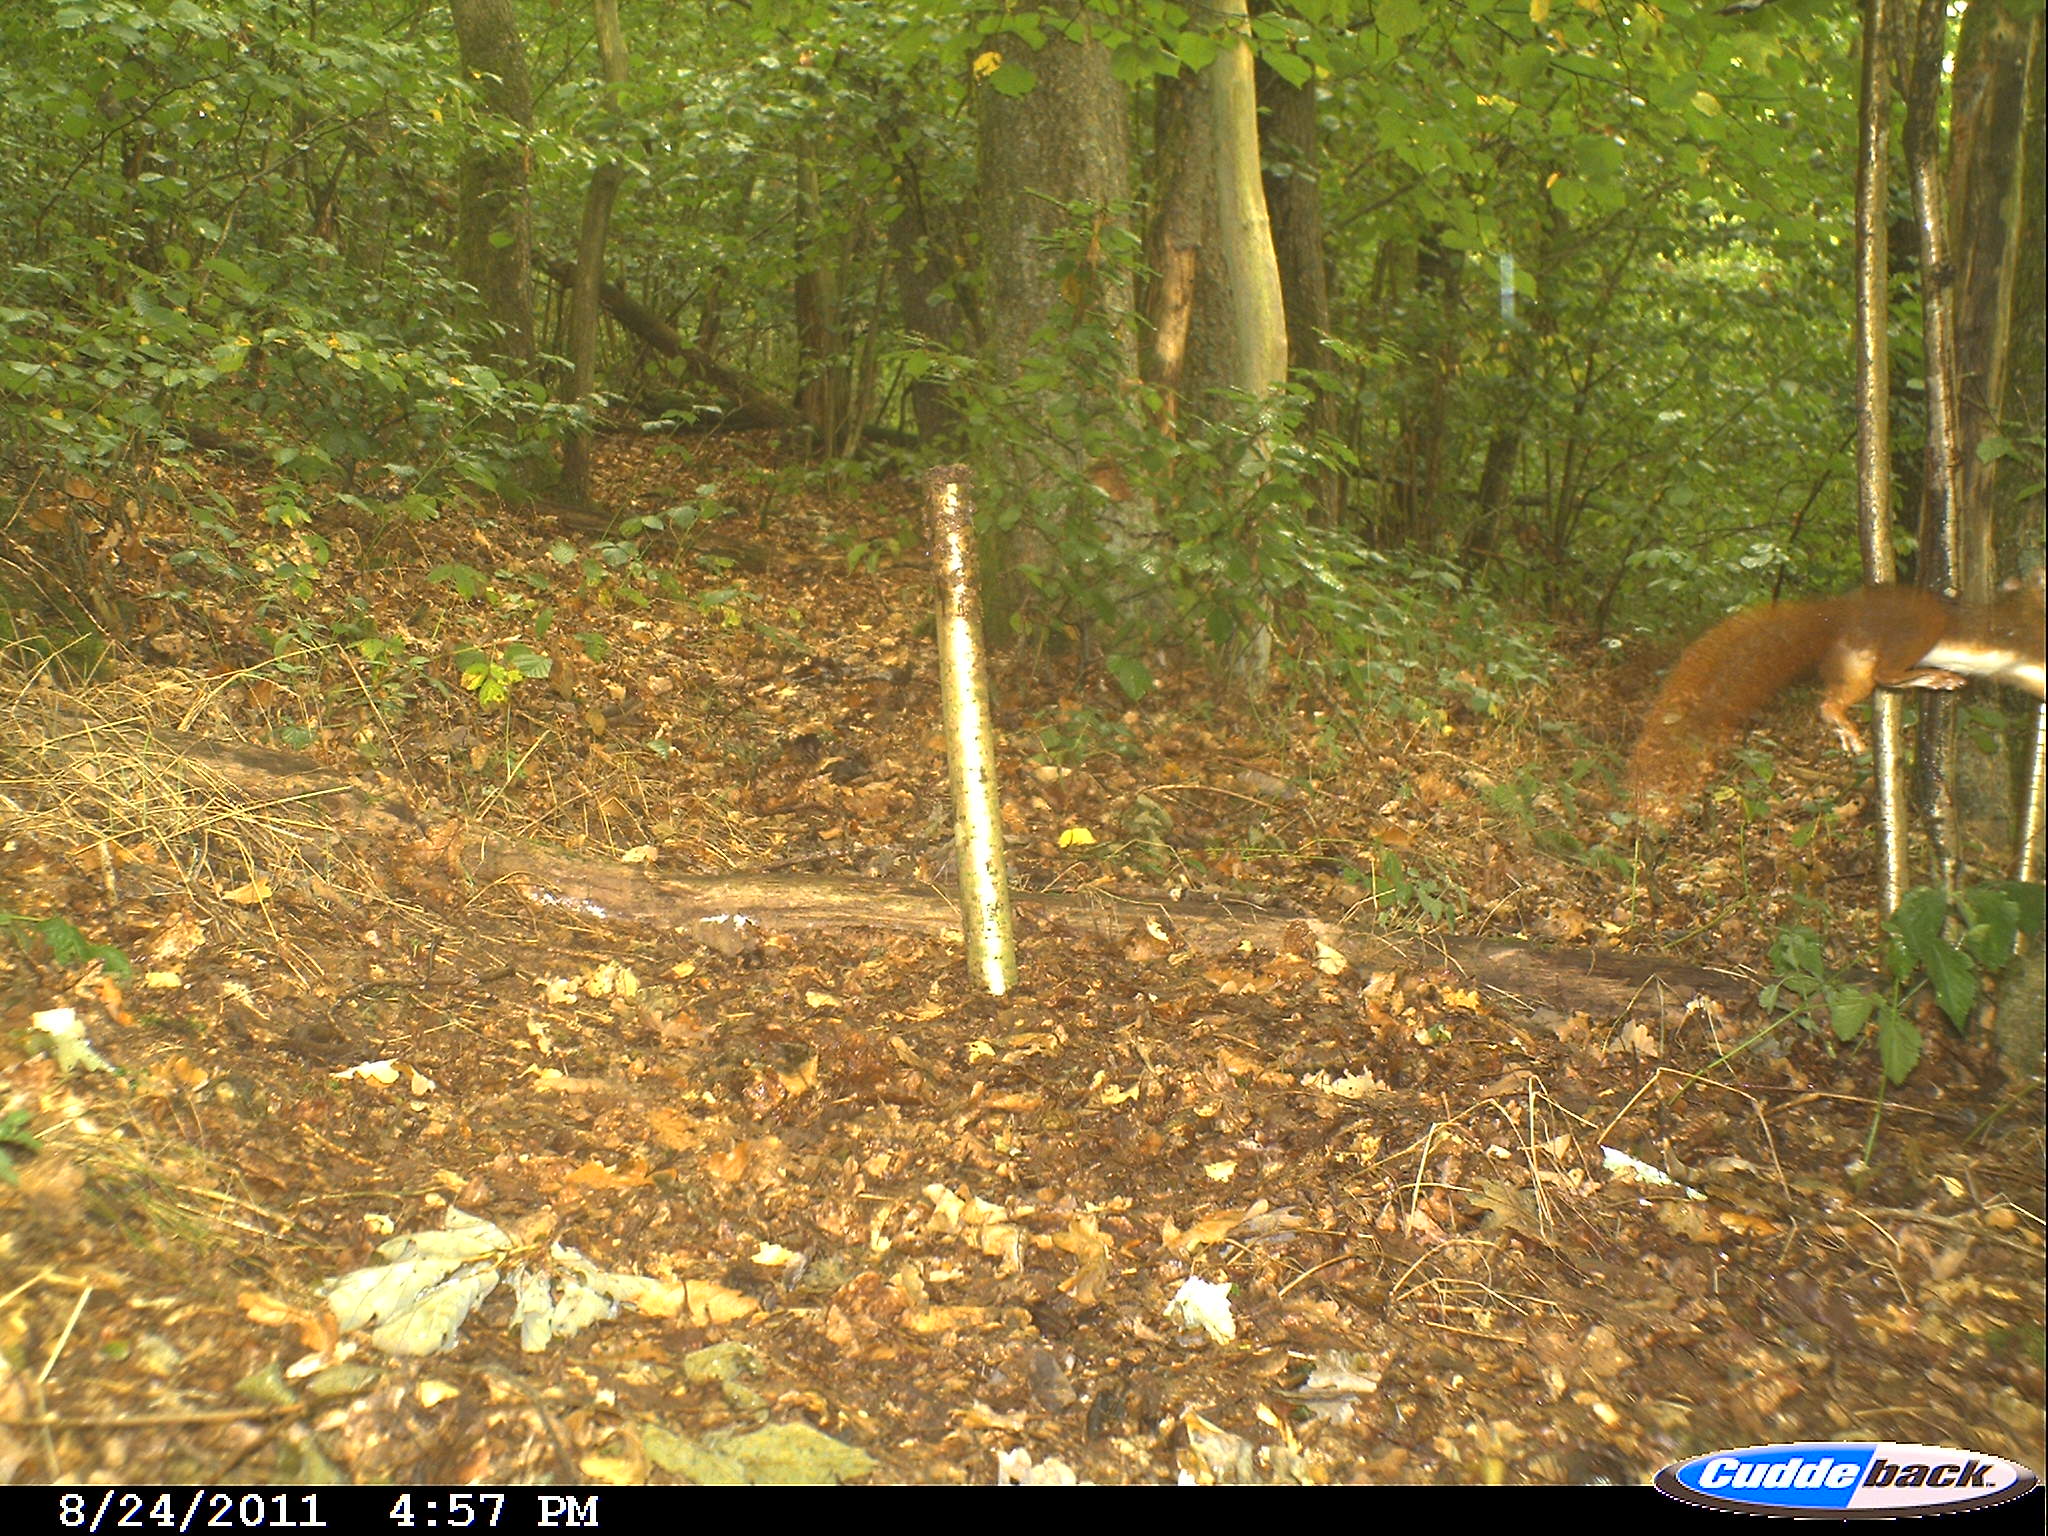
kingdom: Animalia
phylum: Chordata
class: Mammalia
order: Rodentia
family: Sciuridae
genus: Sciurus
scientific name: Sciurus vulgaris
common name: Eurasian red squirrel
